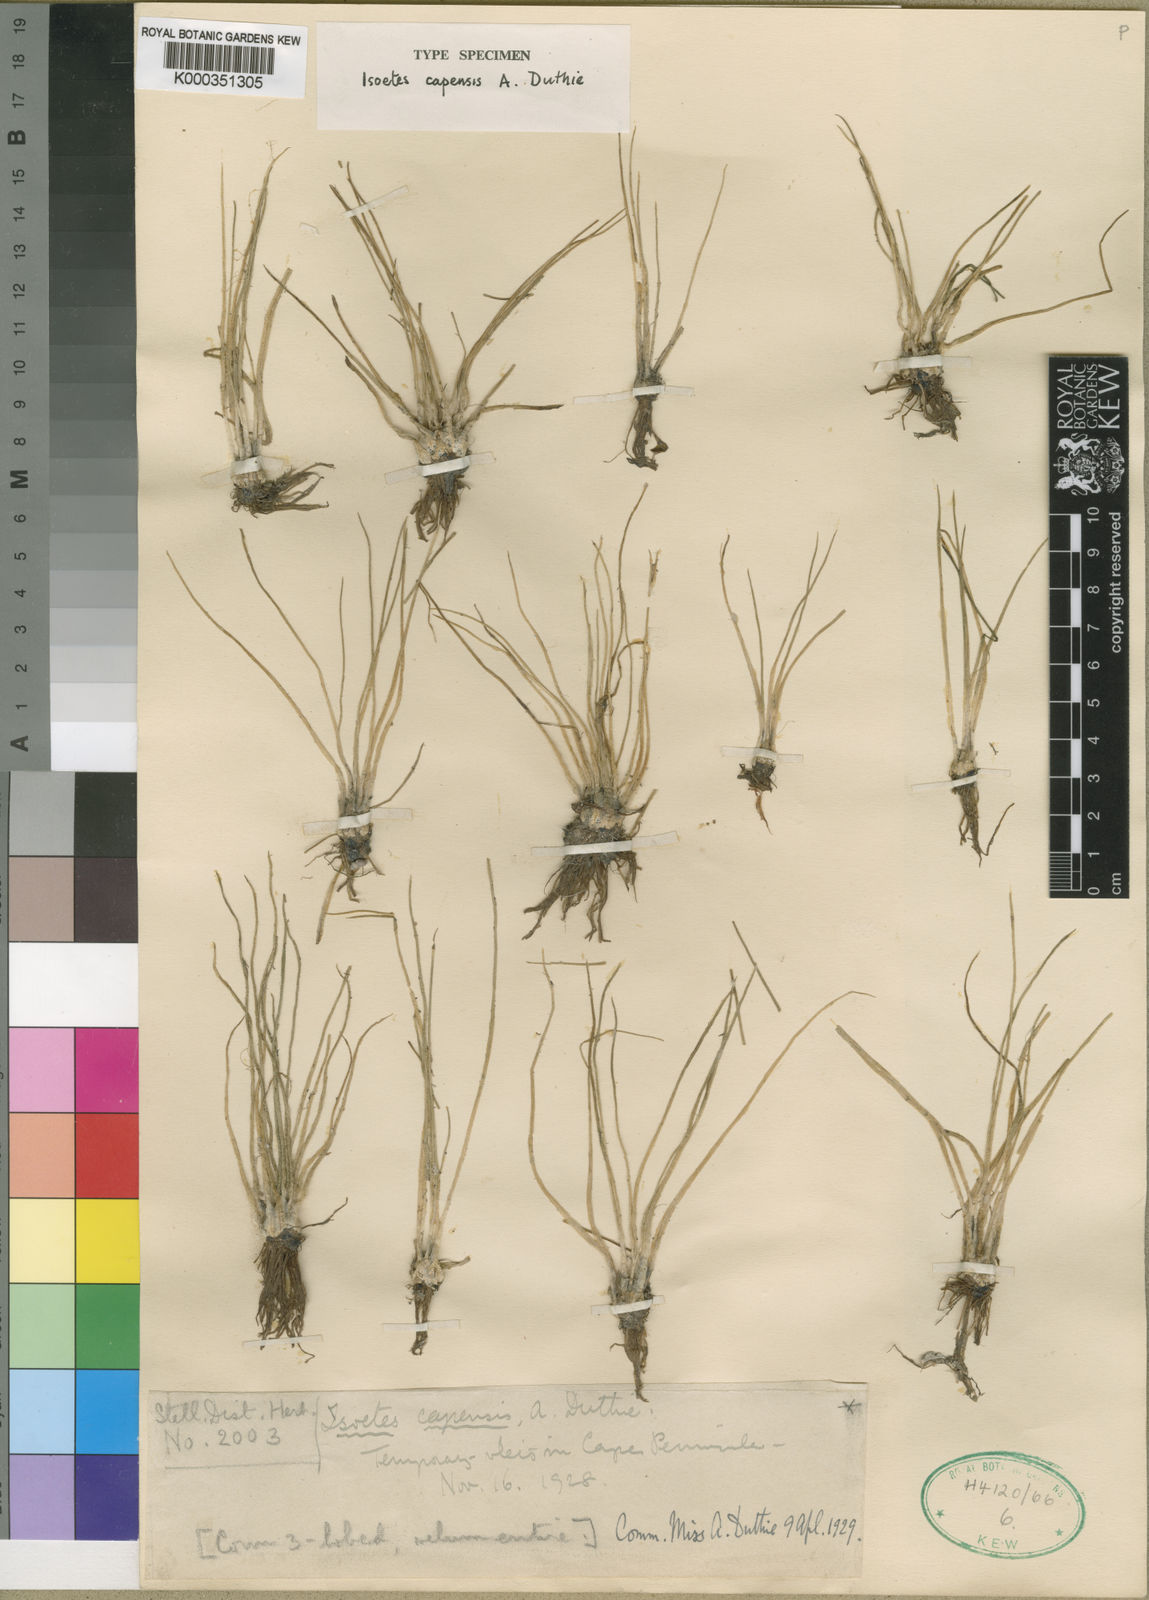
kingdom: Plantae
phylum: Tracheophyta
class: Lycopodiopsida
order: Isoetales
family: Isoetaceae
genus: Isoetes
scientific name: Isoetes capensis
